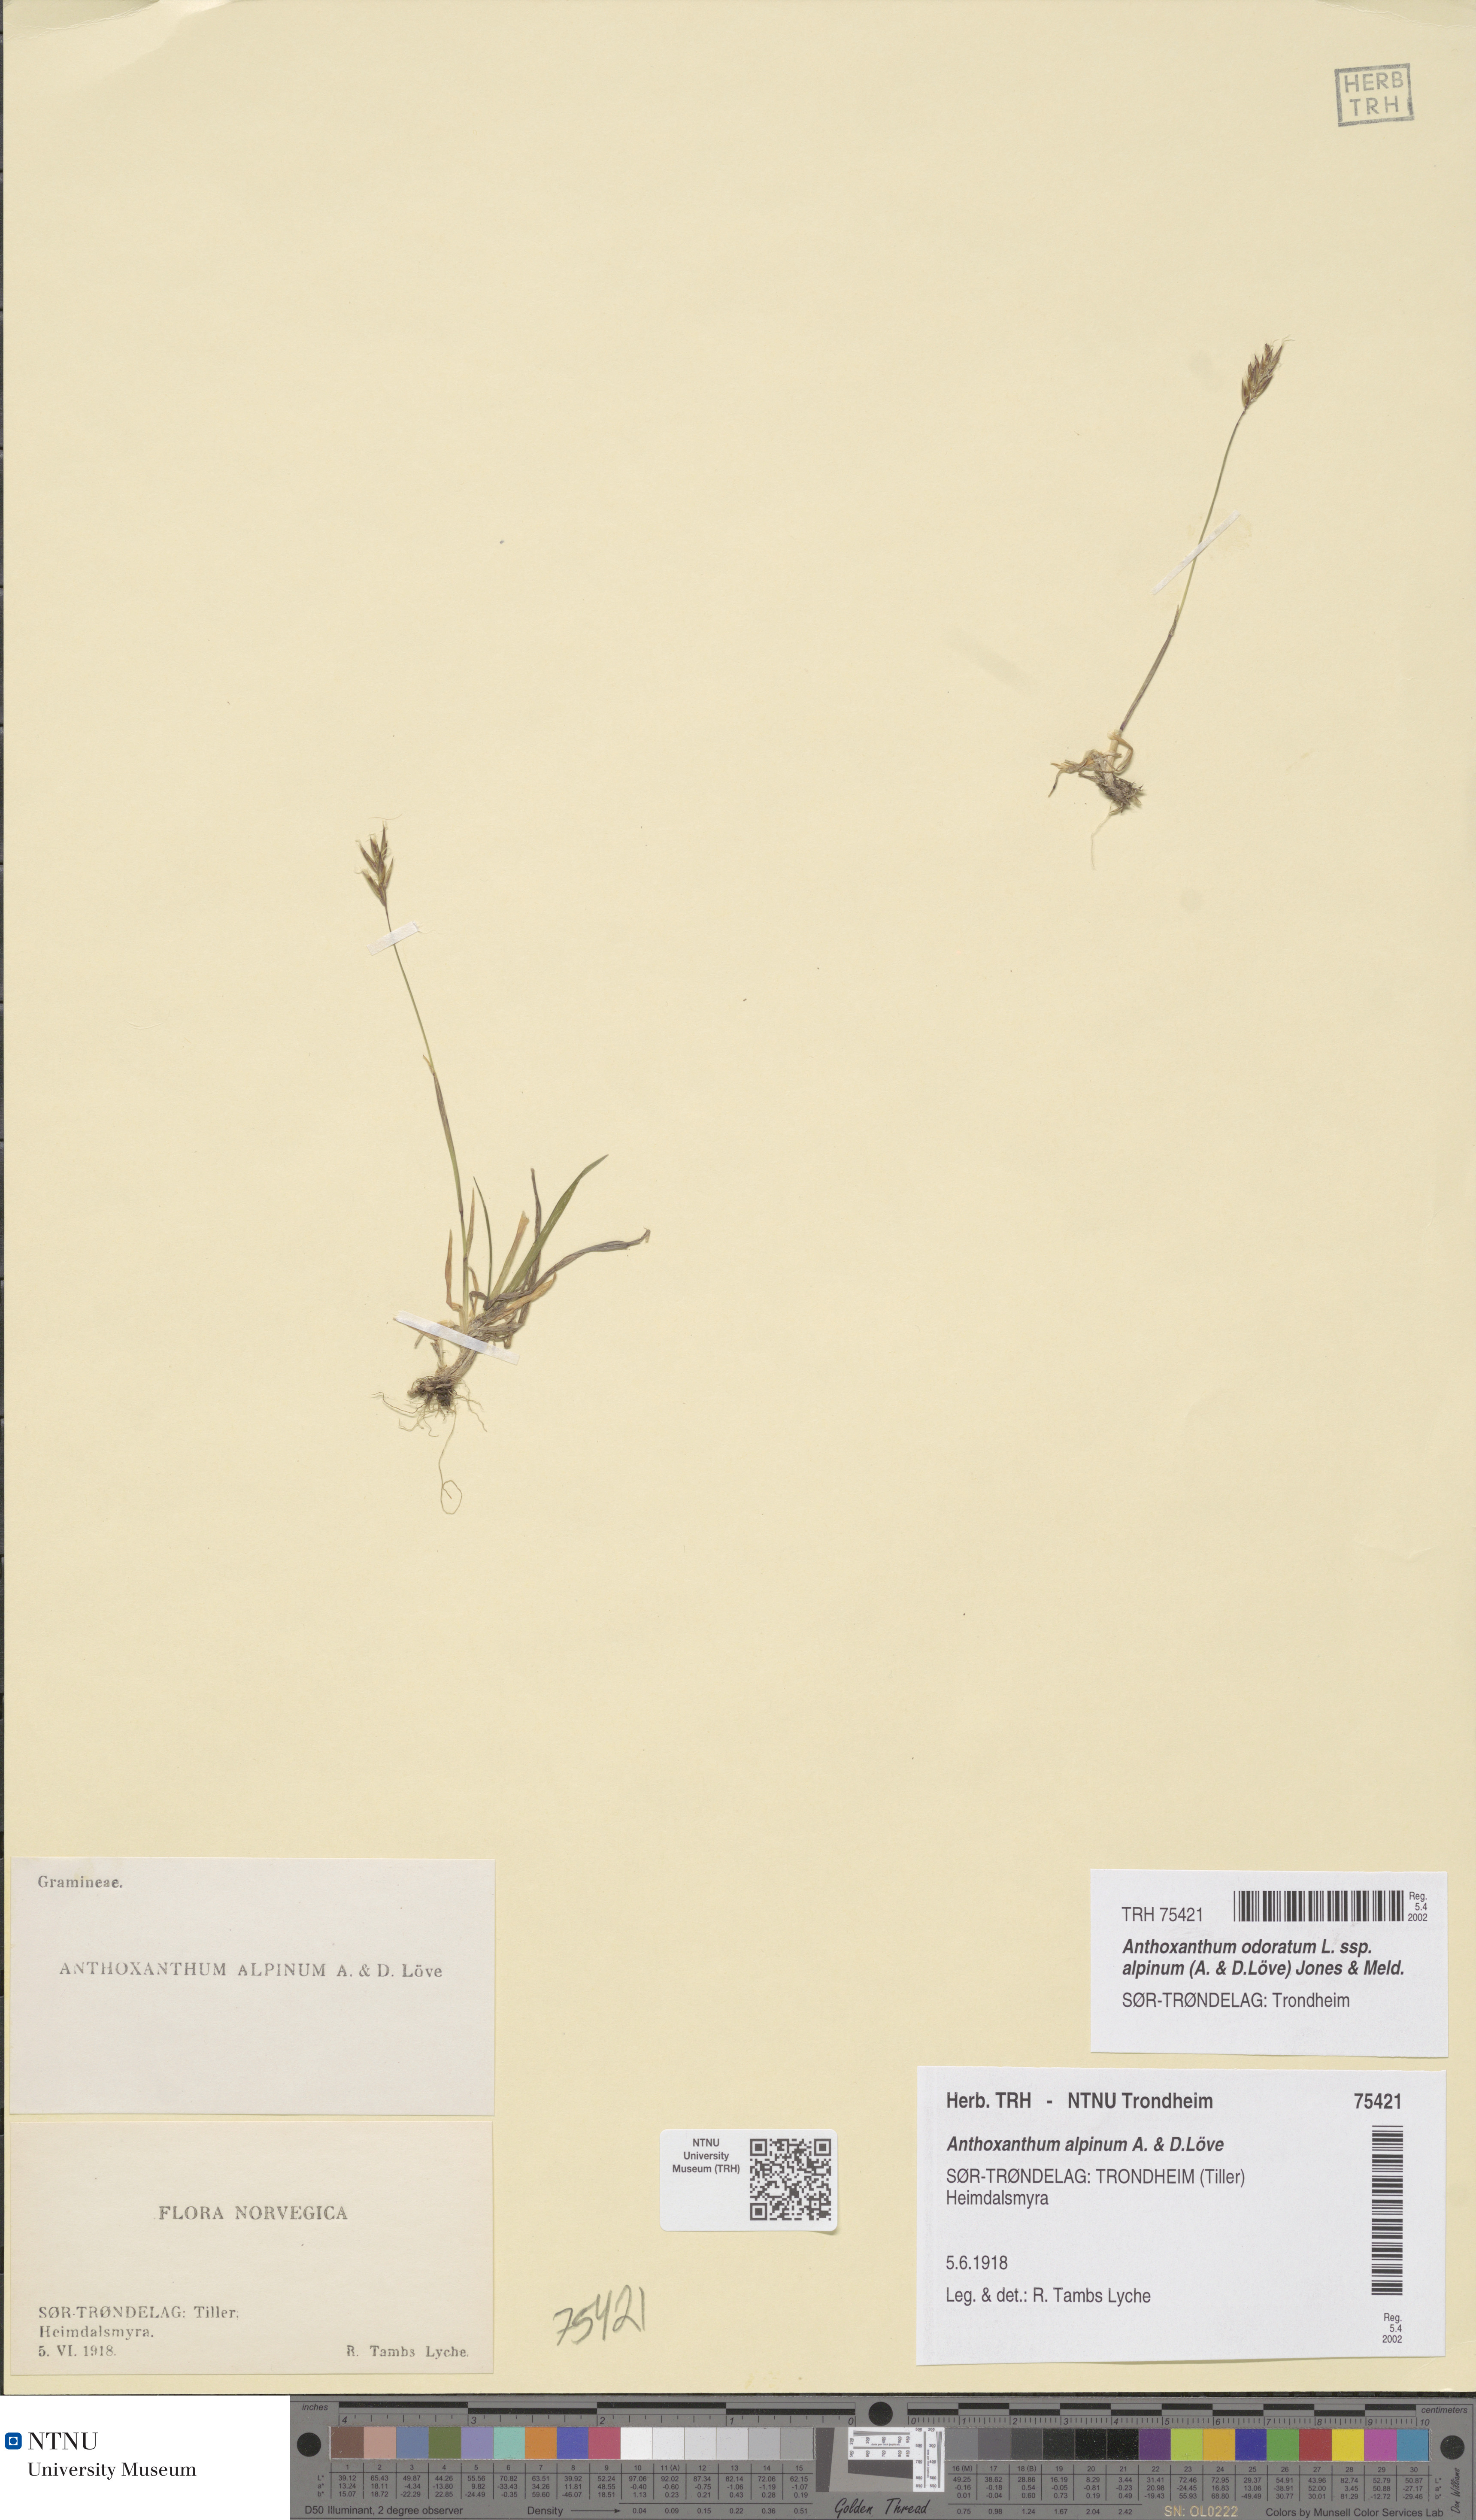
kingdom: Plantae
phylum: Tracheophyta
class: Liliopsida
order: Poales
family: Poaceae
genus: Anthoxanthum
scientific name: Anthoxanthum nipponicum
